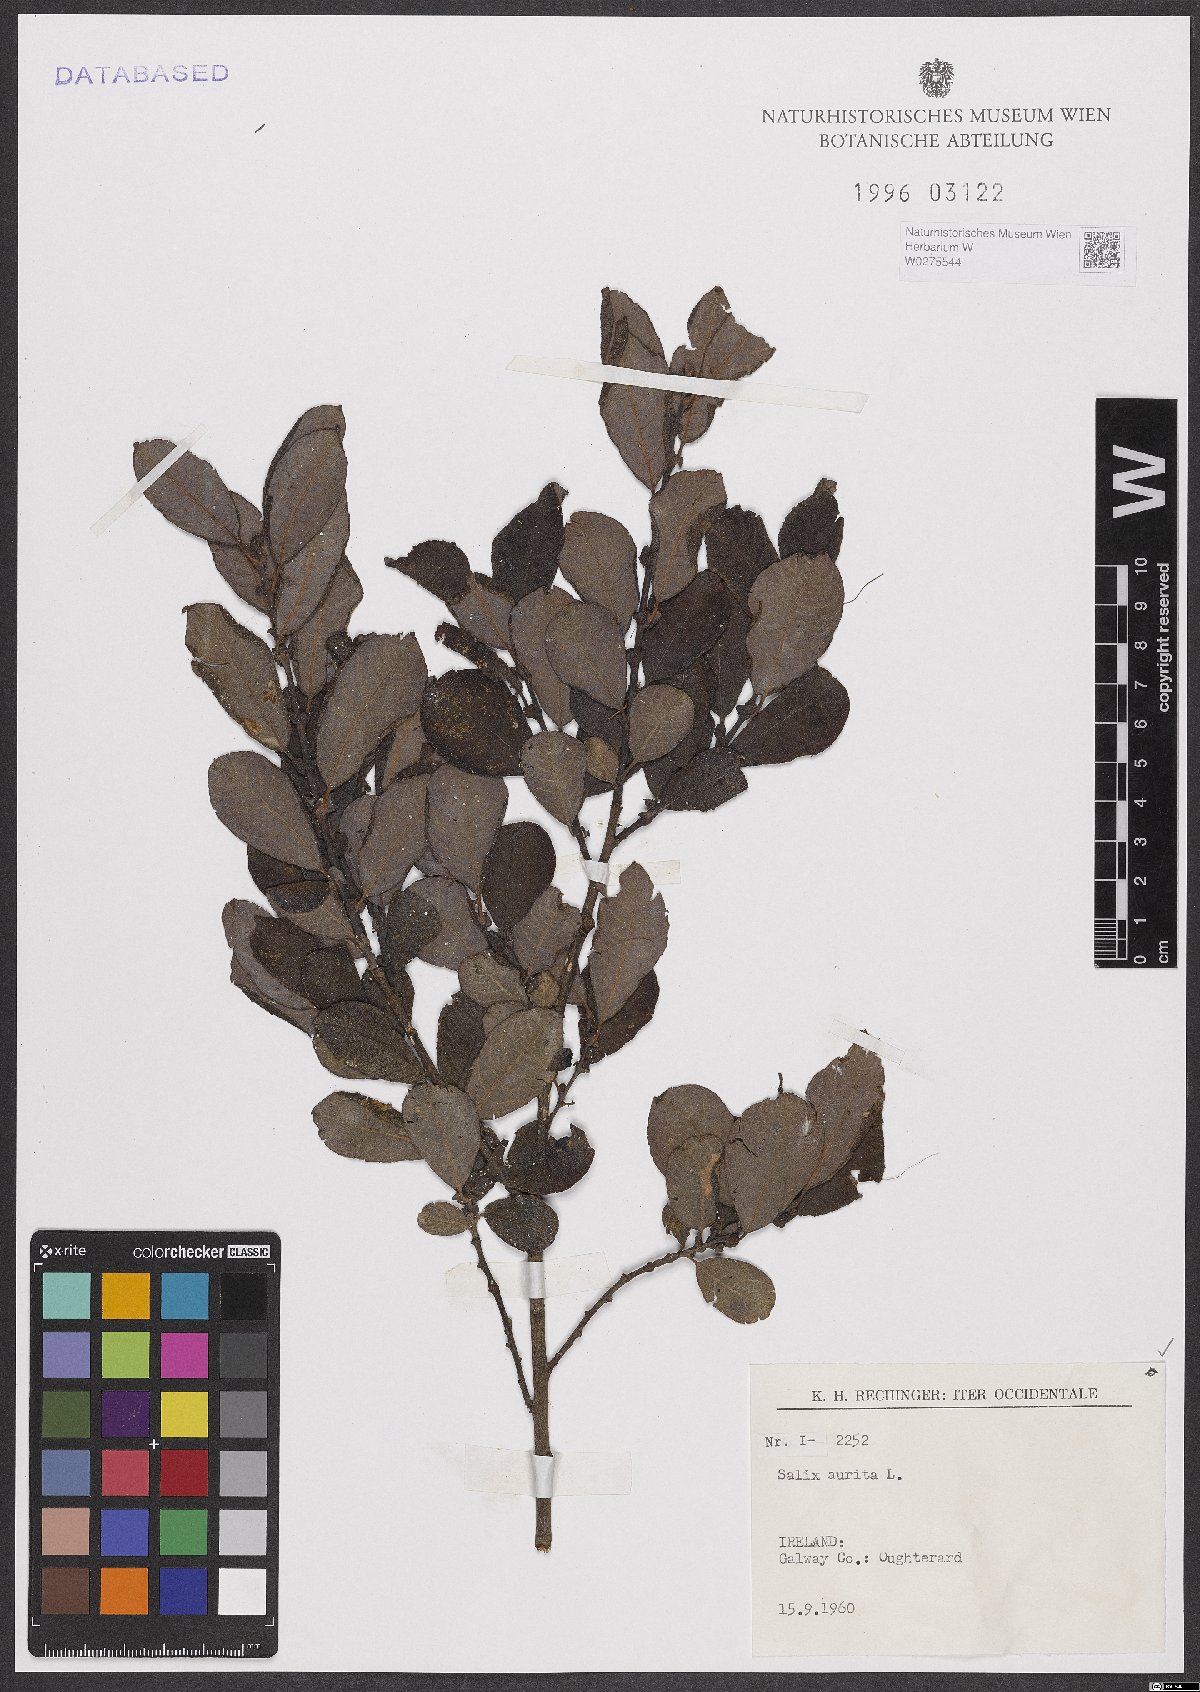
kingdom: Plantae
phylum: Tracheophyta
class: Magnoliopsida
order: Malpighiales
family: Salicaceae
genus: Salix
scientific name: Salix aurita
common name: Eared willow
